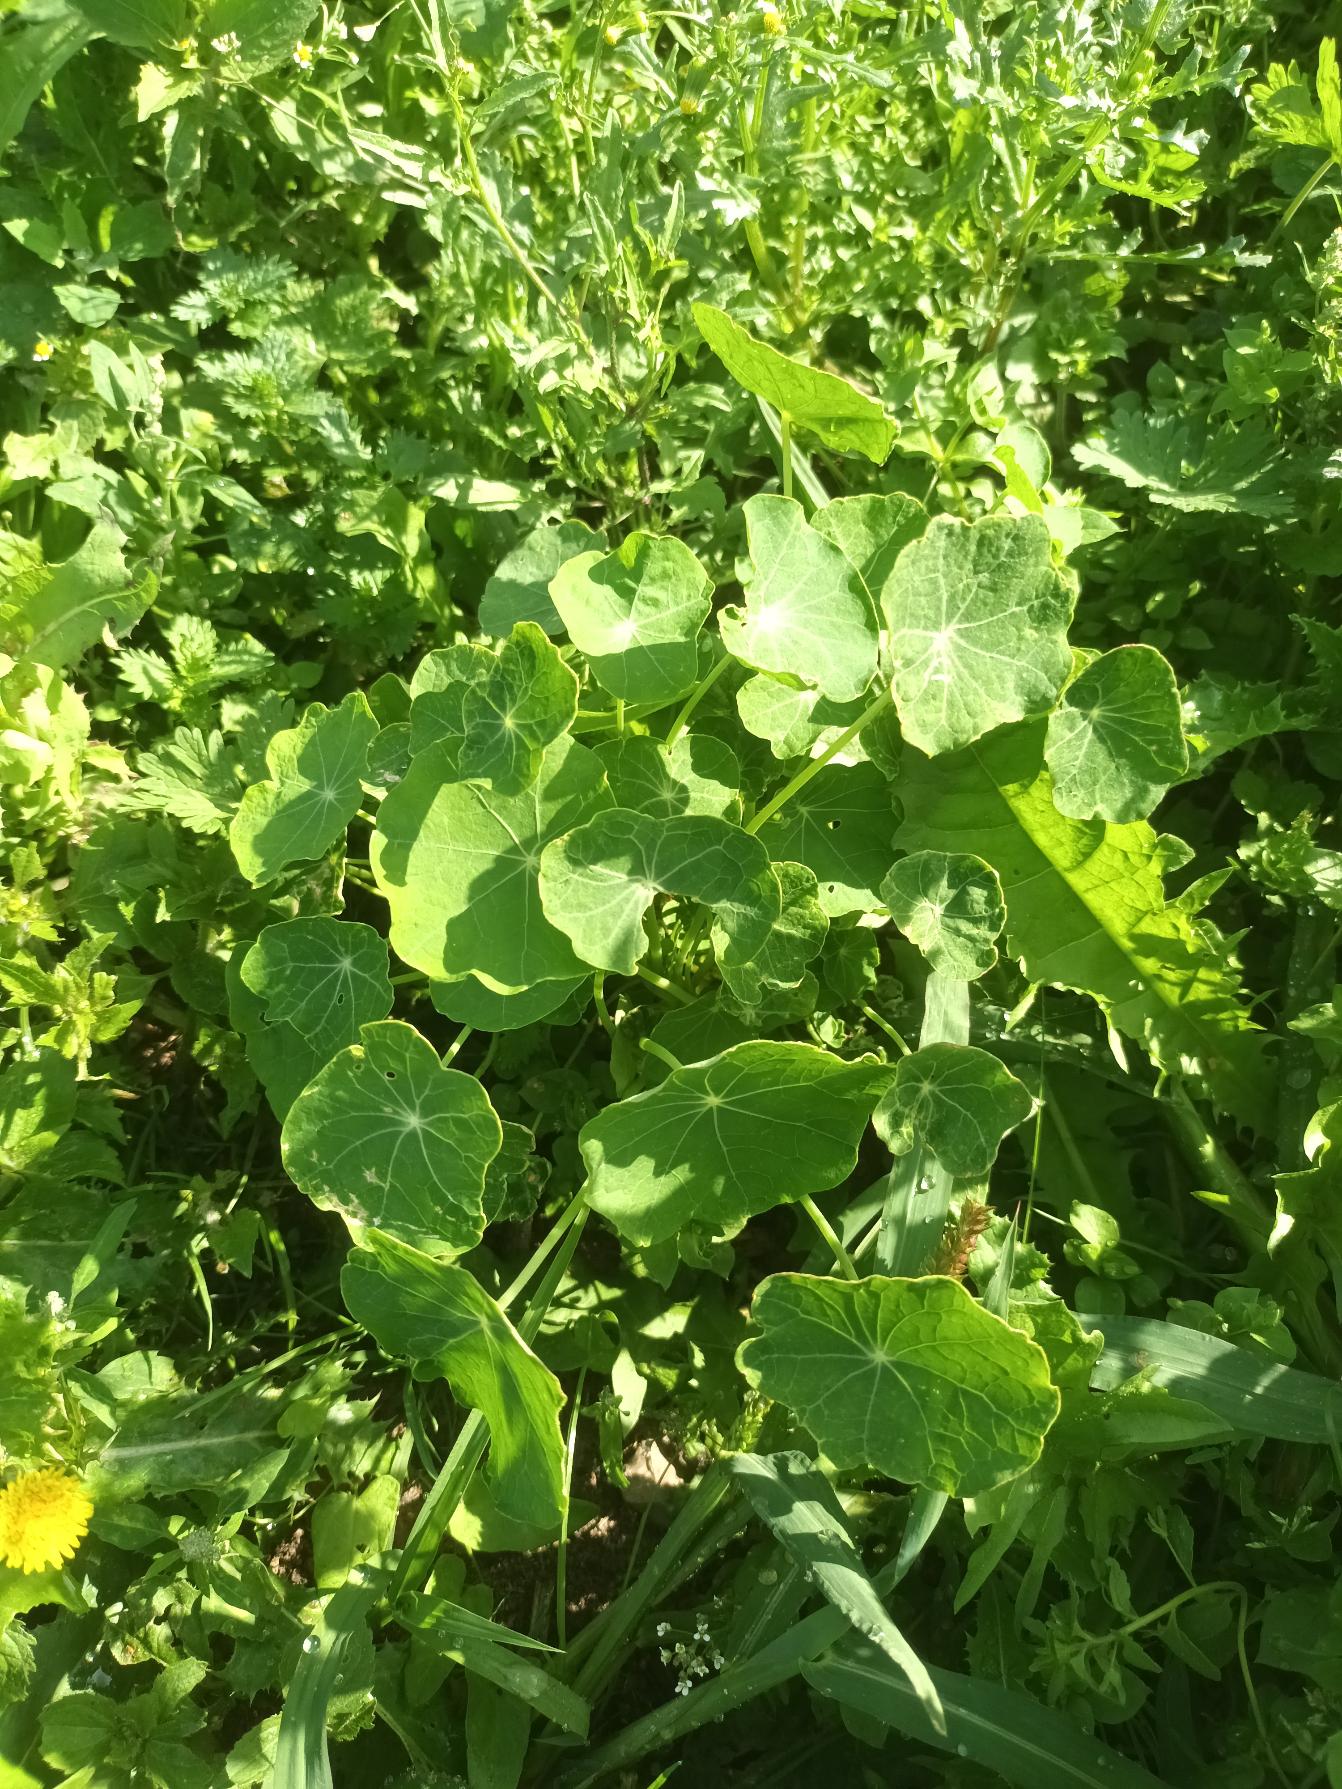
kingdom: Plantae
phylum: Tracheophyta
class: Magnoliopsida
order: Brassicales
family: Tropaeolaceae
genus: Tropaeolum
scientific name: Tropaeolum majus
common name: Blomsterkarse
